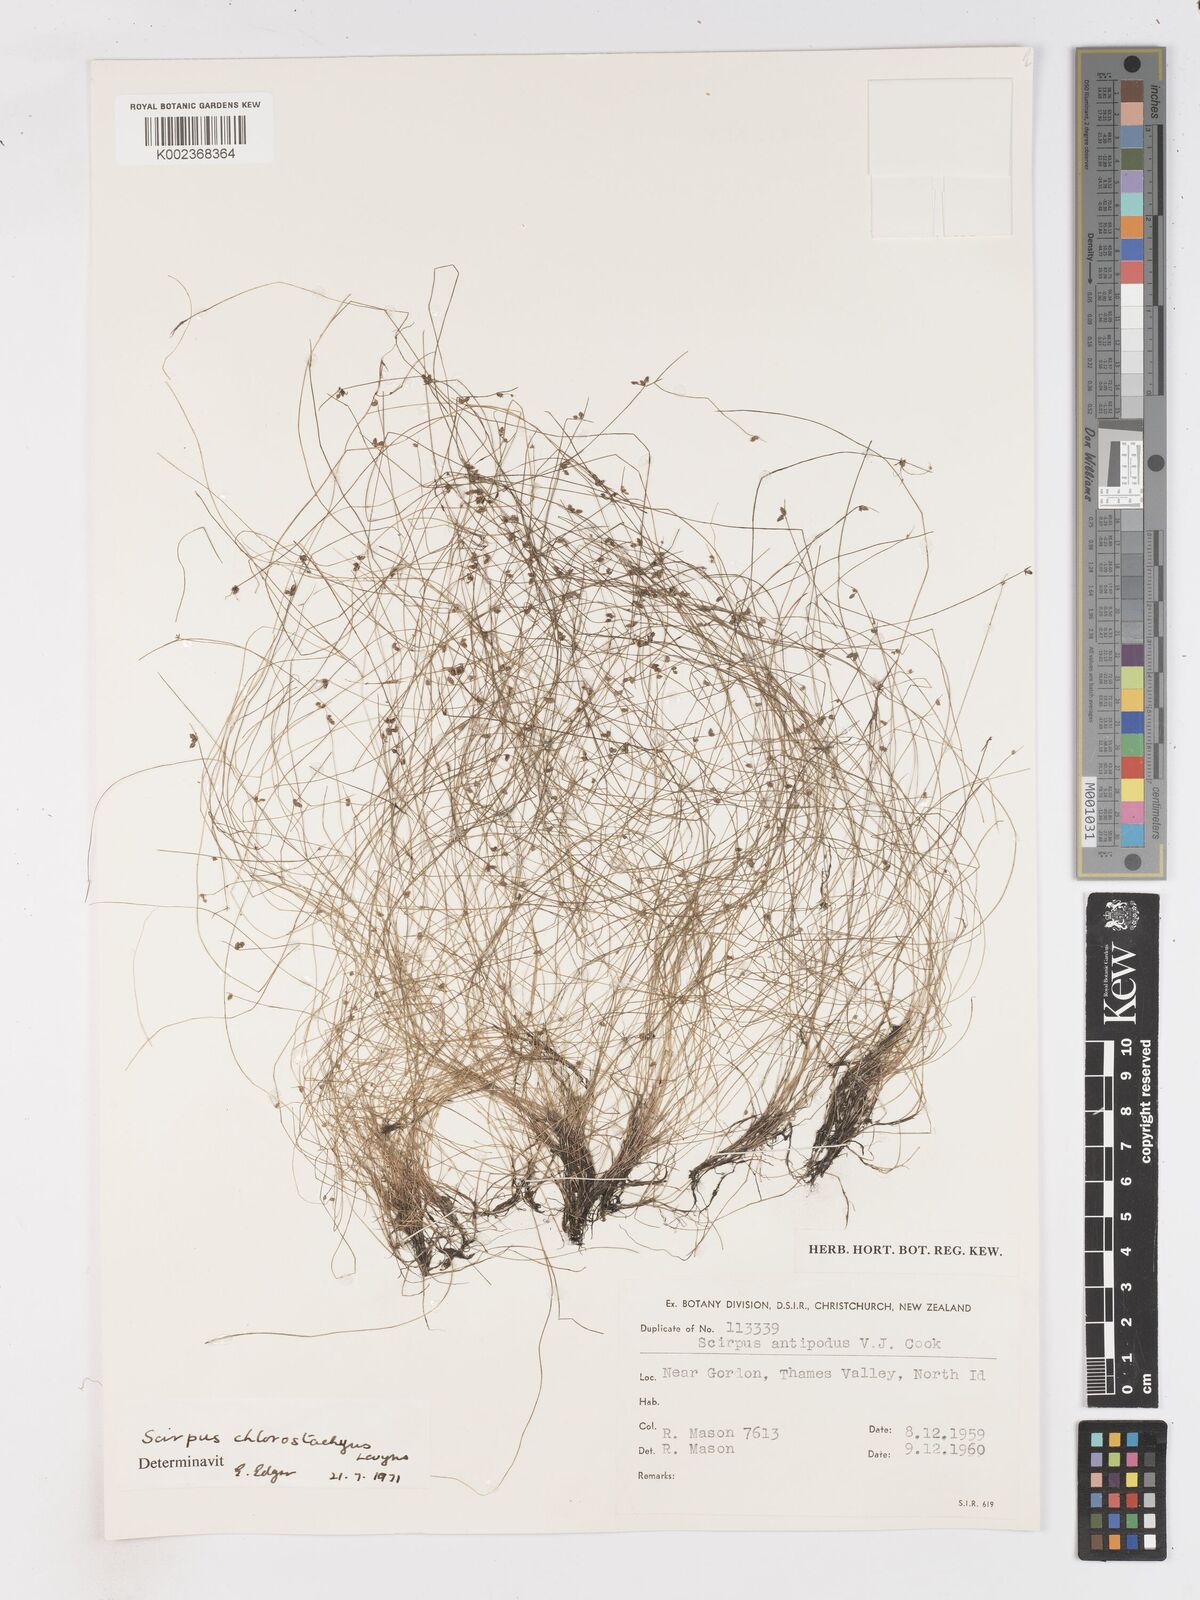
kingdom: Plantae
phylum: Tracheophyta
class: Liliopsida
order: Poales
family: Cyperaceae
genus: Isolepis
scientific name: Isolepis sepulcralis
